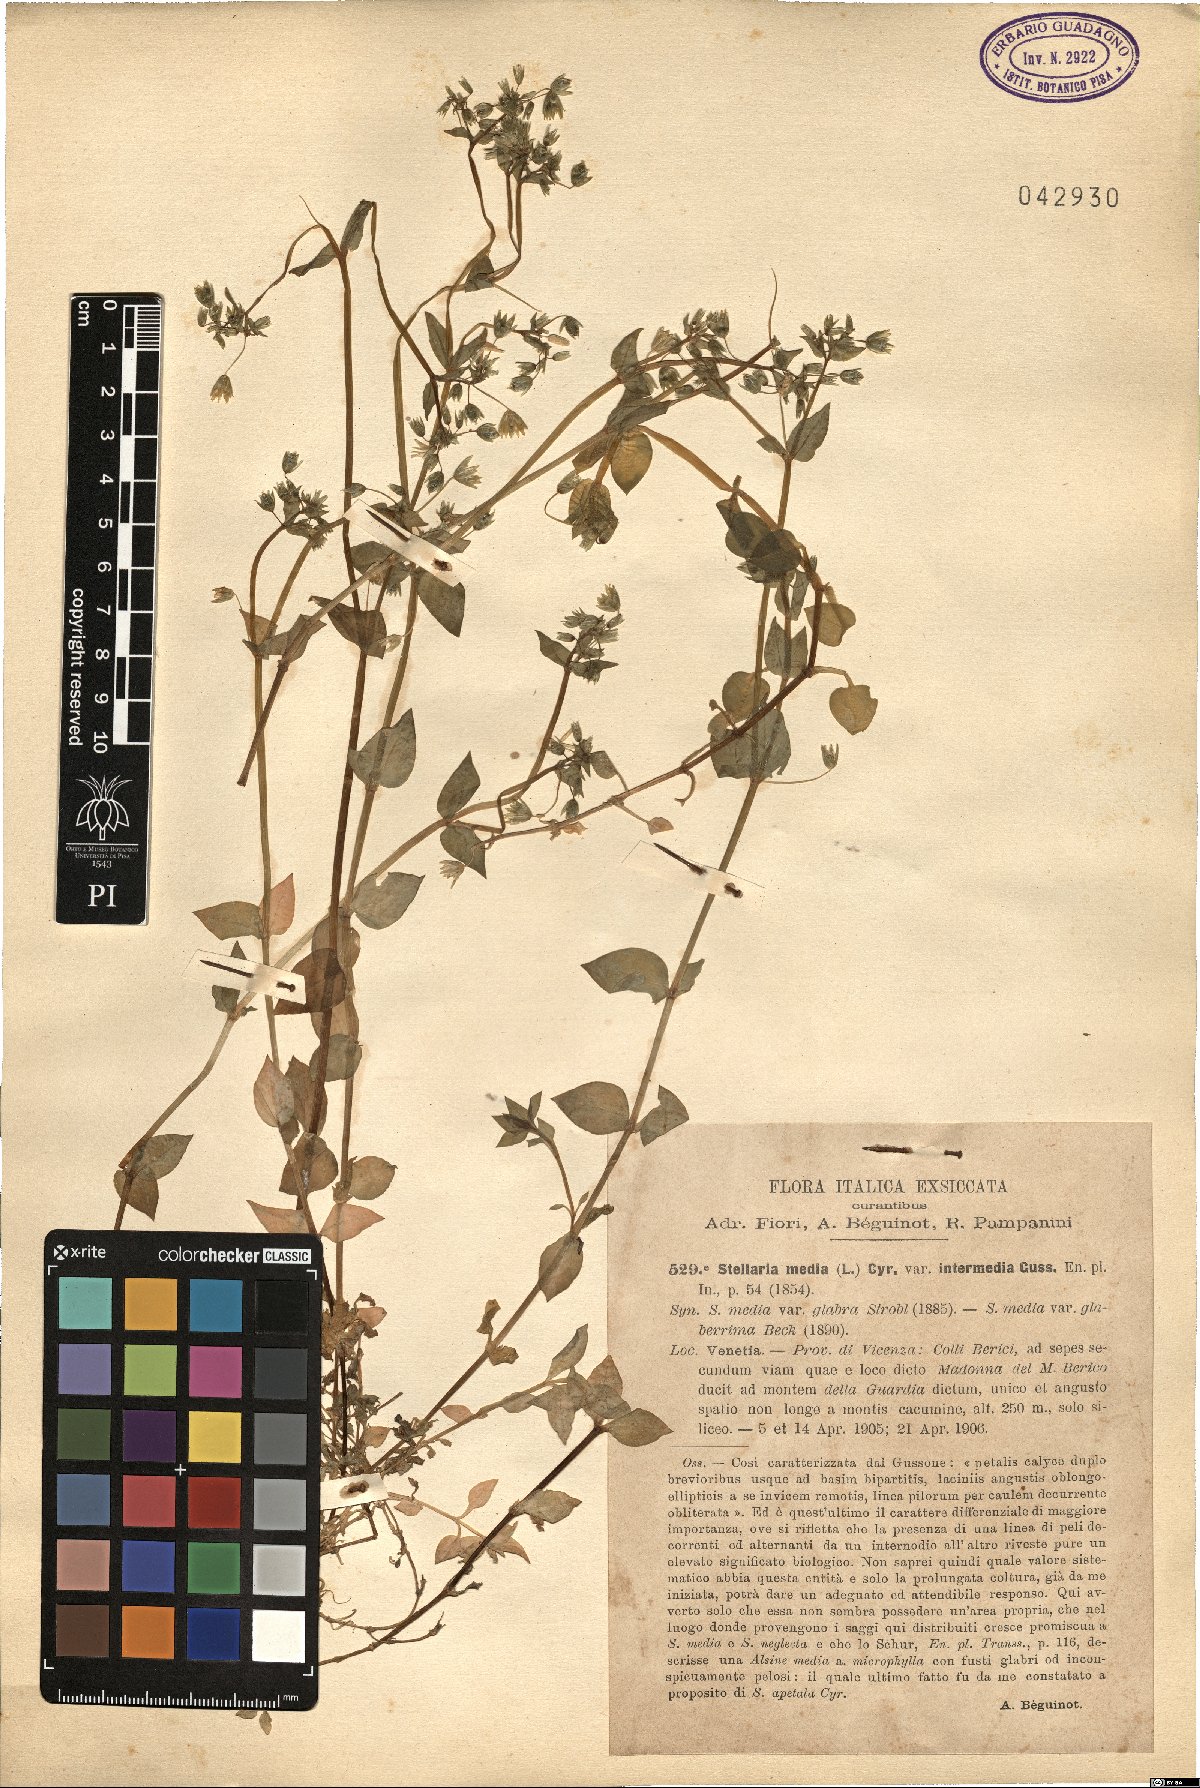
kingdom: Plantae
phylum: Tracheophyta
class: Magnoliopsida
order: Caryophyllales
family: Caryophyllaceae
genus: Stellaria
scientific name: Stellaria media
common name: Common chickweed
